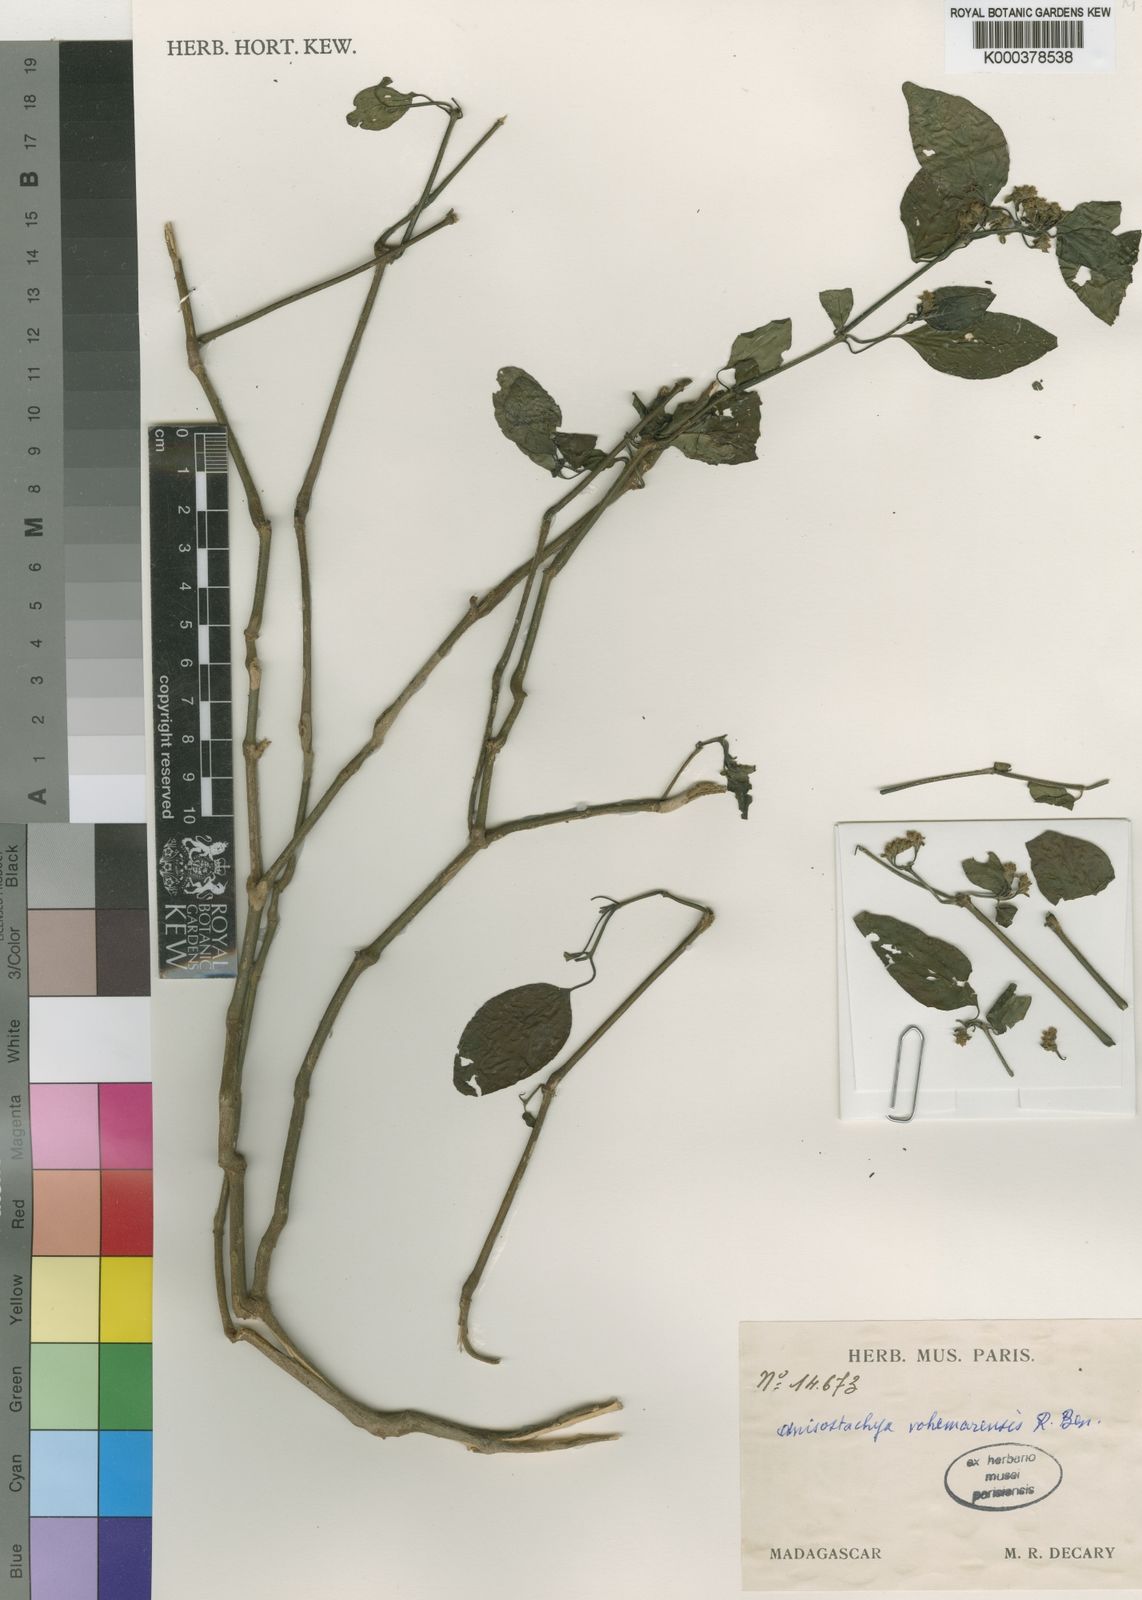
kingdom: Plantae
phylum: Tracheophyta
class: Magnoliopsida
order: Lamiales
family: Acanthaceae
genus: Justicia
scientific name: Justicia
